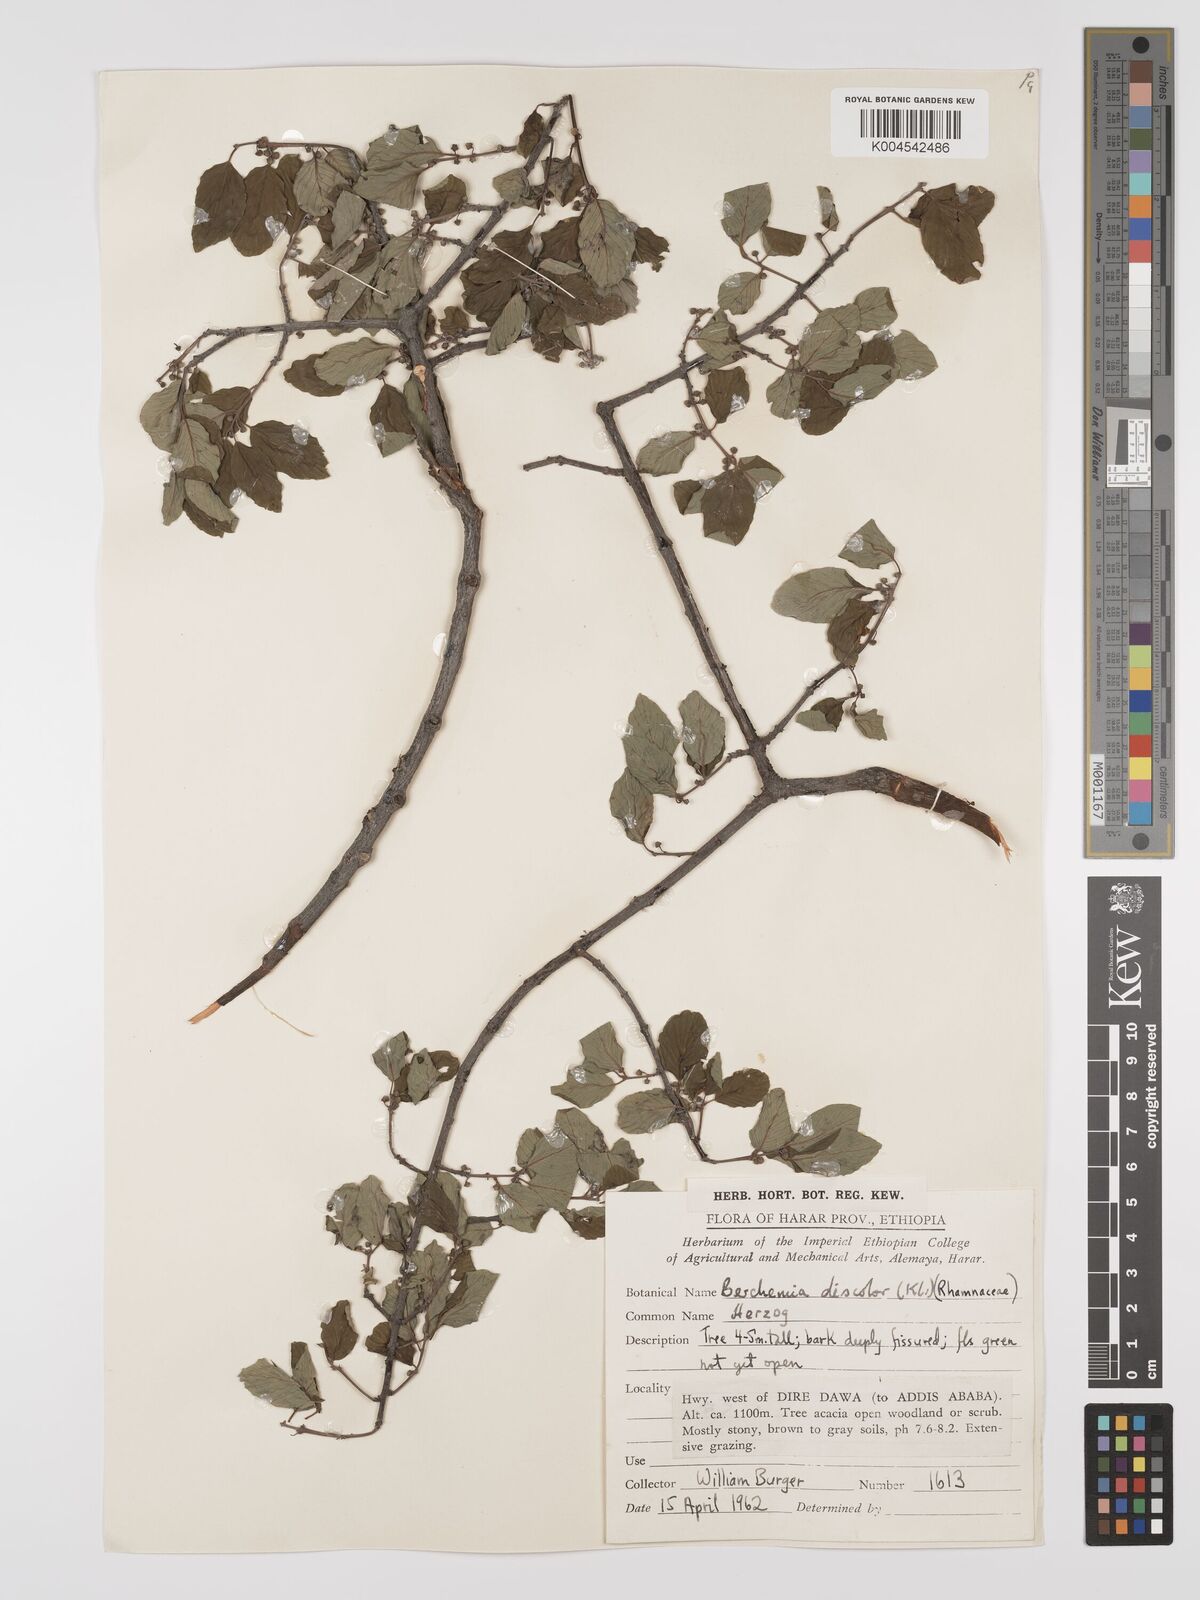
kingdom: Plantae
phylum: Tracheophyta
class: Magnoliopsida
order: Rosales
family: Rhamnaceae
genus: Phyllogeiton
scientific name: Phyllogeiton discolor
